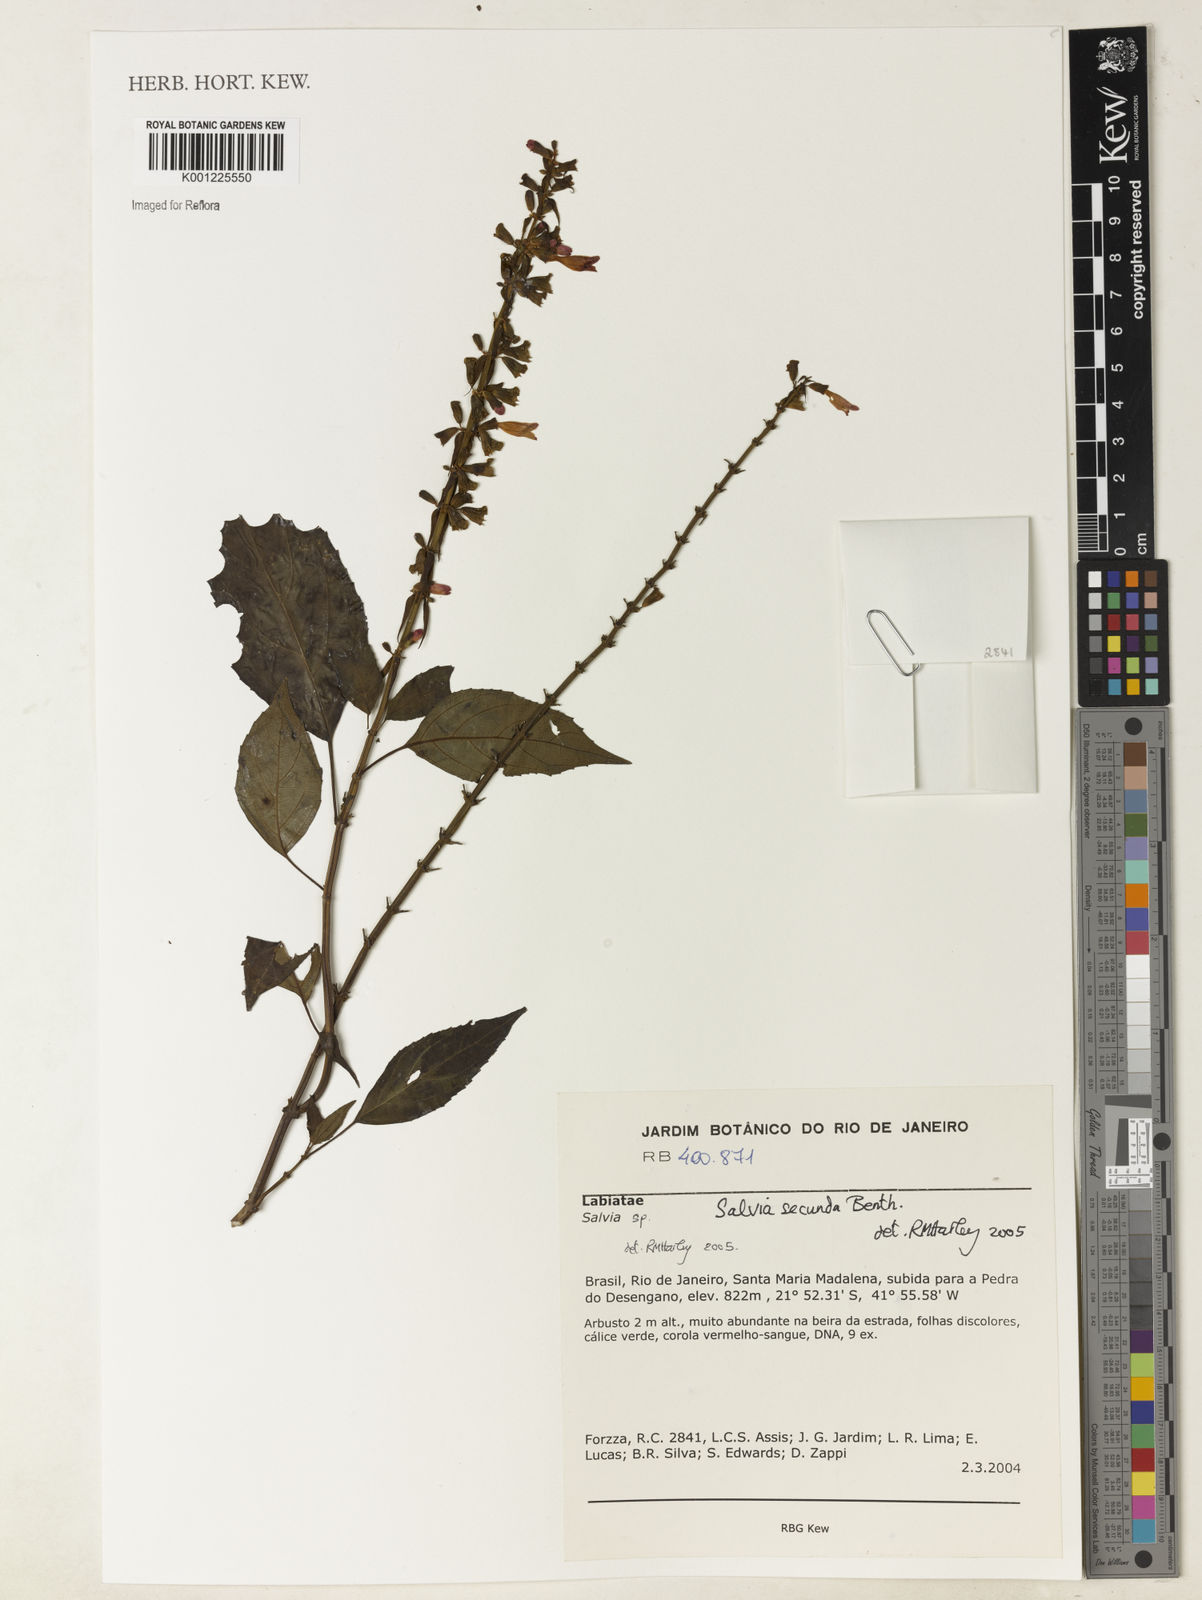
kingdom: Plantae
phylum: Tracheophyta
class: Magnoliopsida
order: Lamiales
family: Lamiaceae
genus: Salvia
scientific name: Salvia secunda
